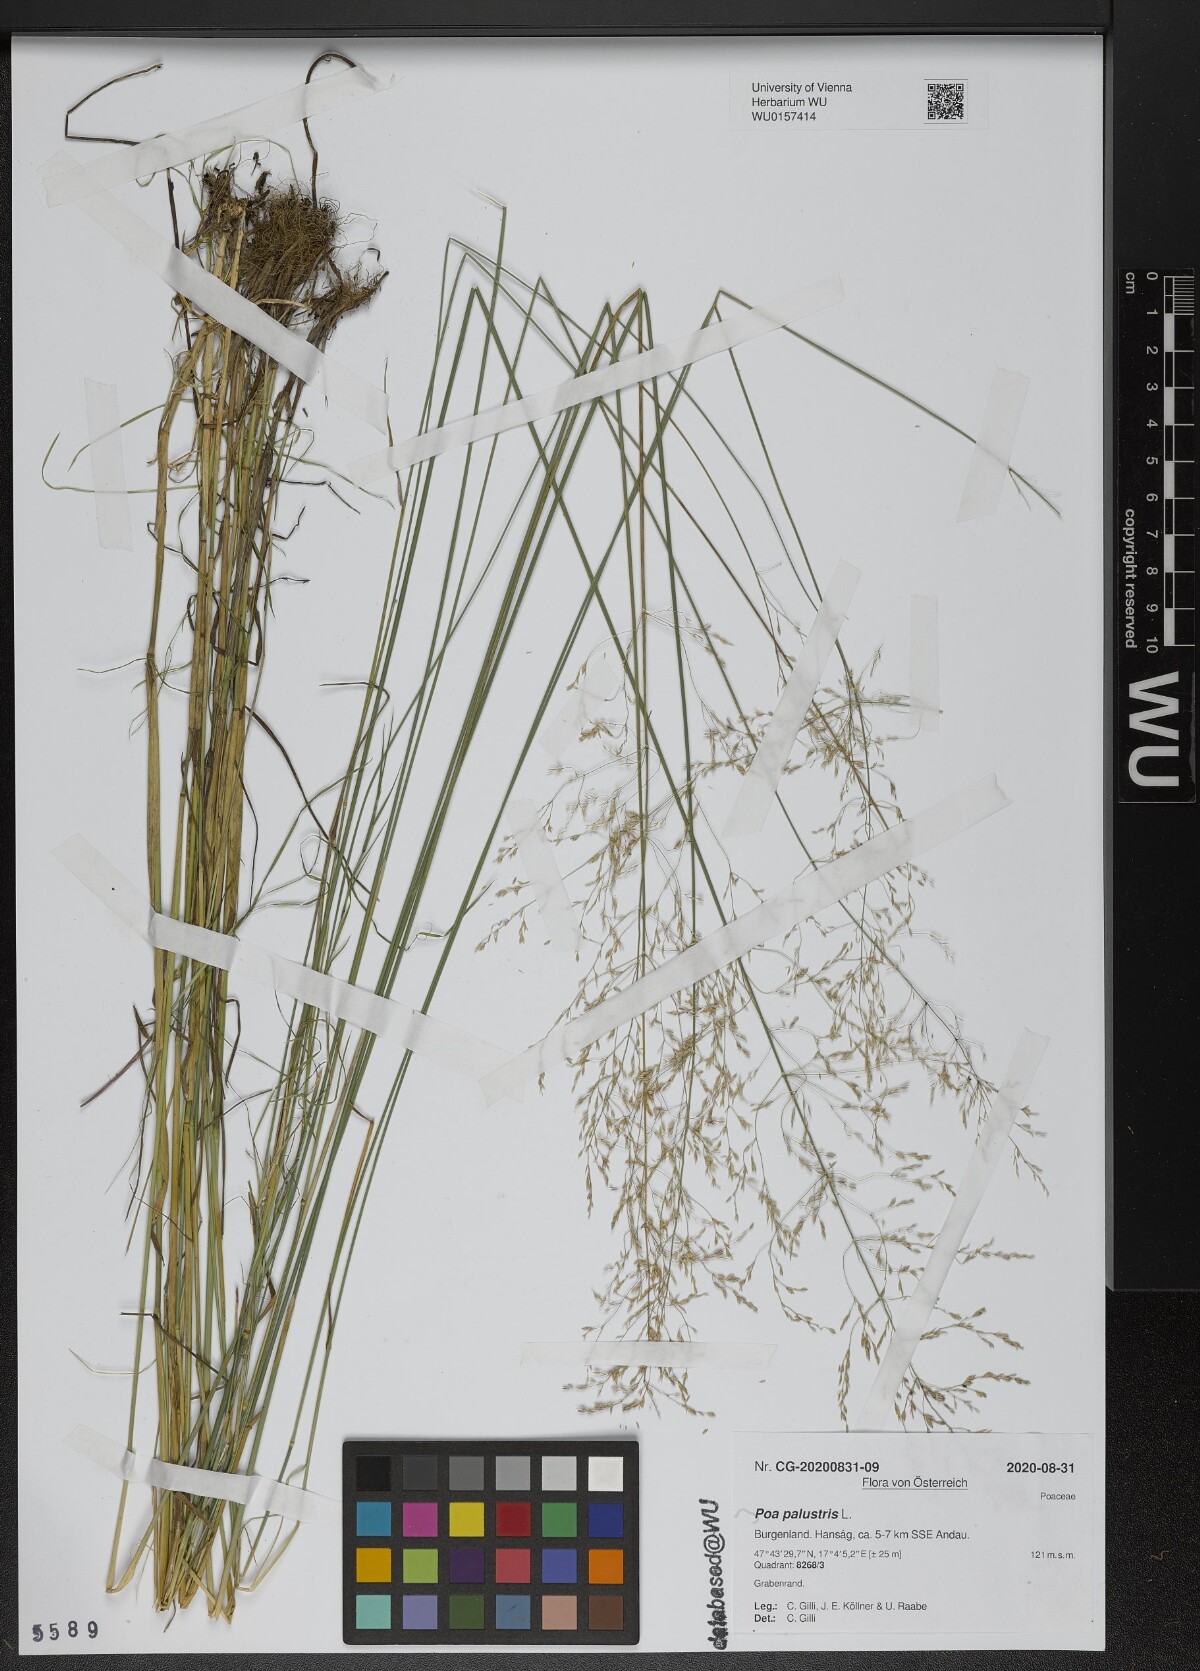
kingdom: Plantae
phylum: Tracheophyta
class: Liliopsida
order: Poales
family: Poaceae
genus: Poa
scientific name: Poa palustris
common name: Swamp meadow-grass
